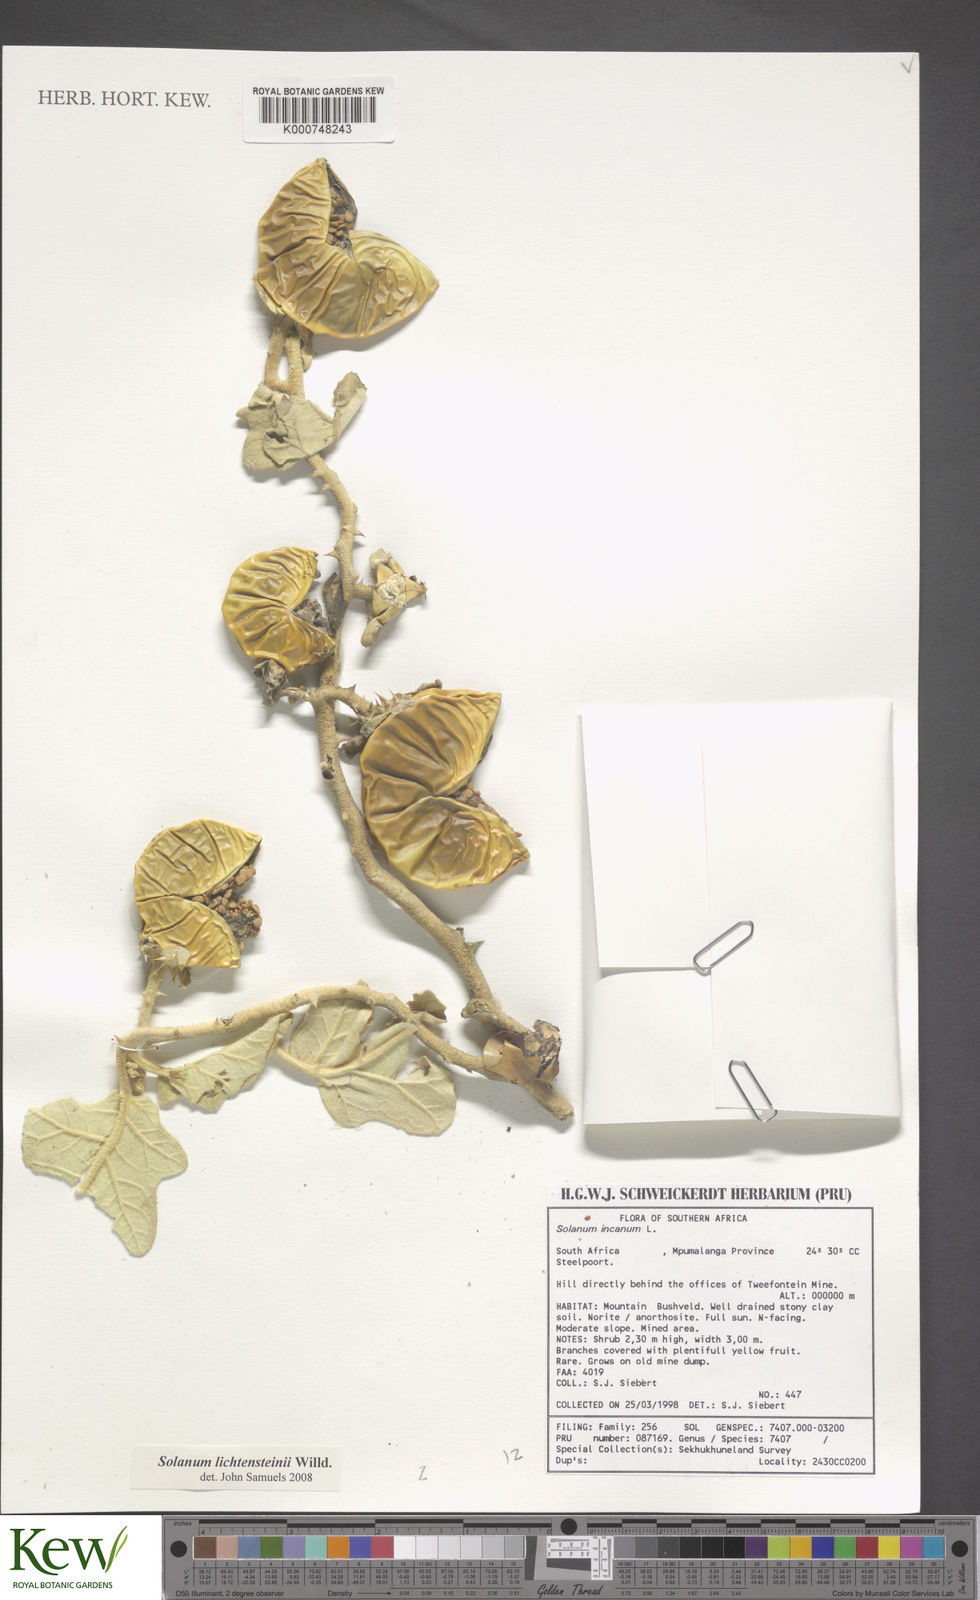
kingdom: Plantae
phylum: Tracheophyta
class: Magnoliopsida
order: Solanales
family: Solanaceae
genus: Solanum
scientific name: Solanum lichtensteinii
